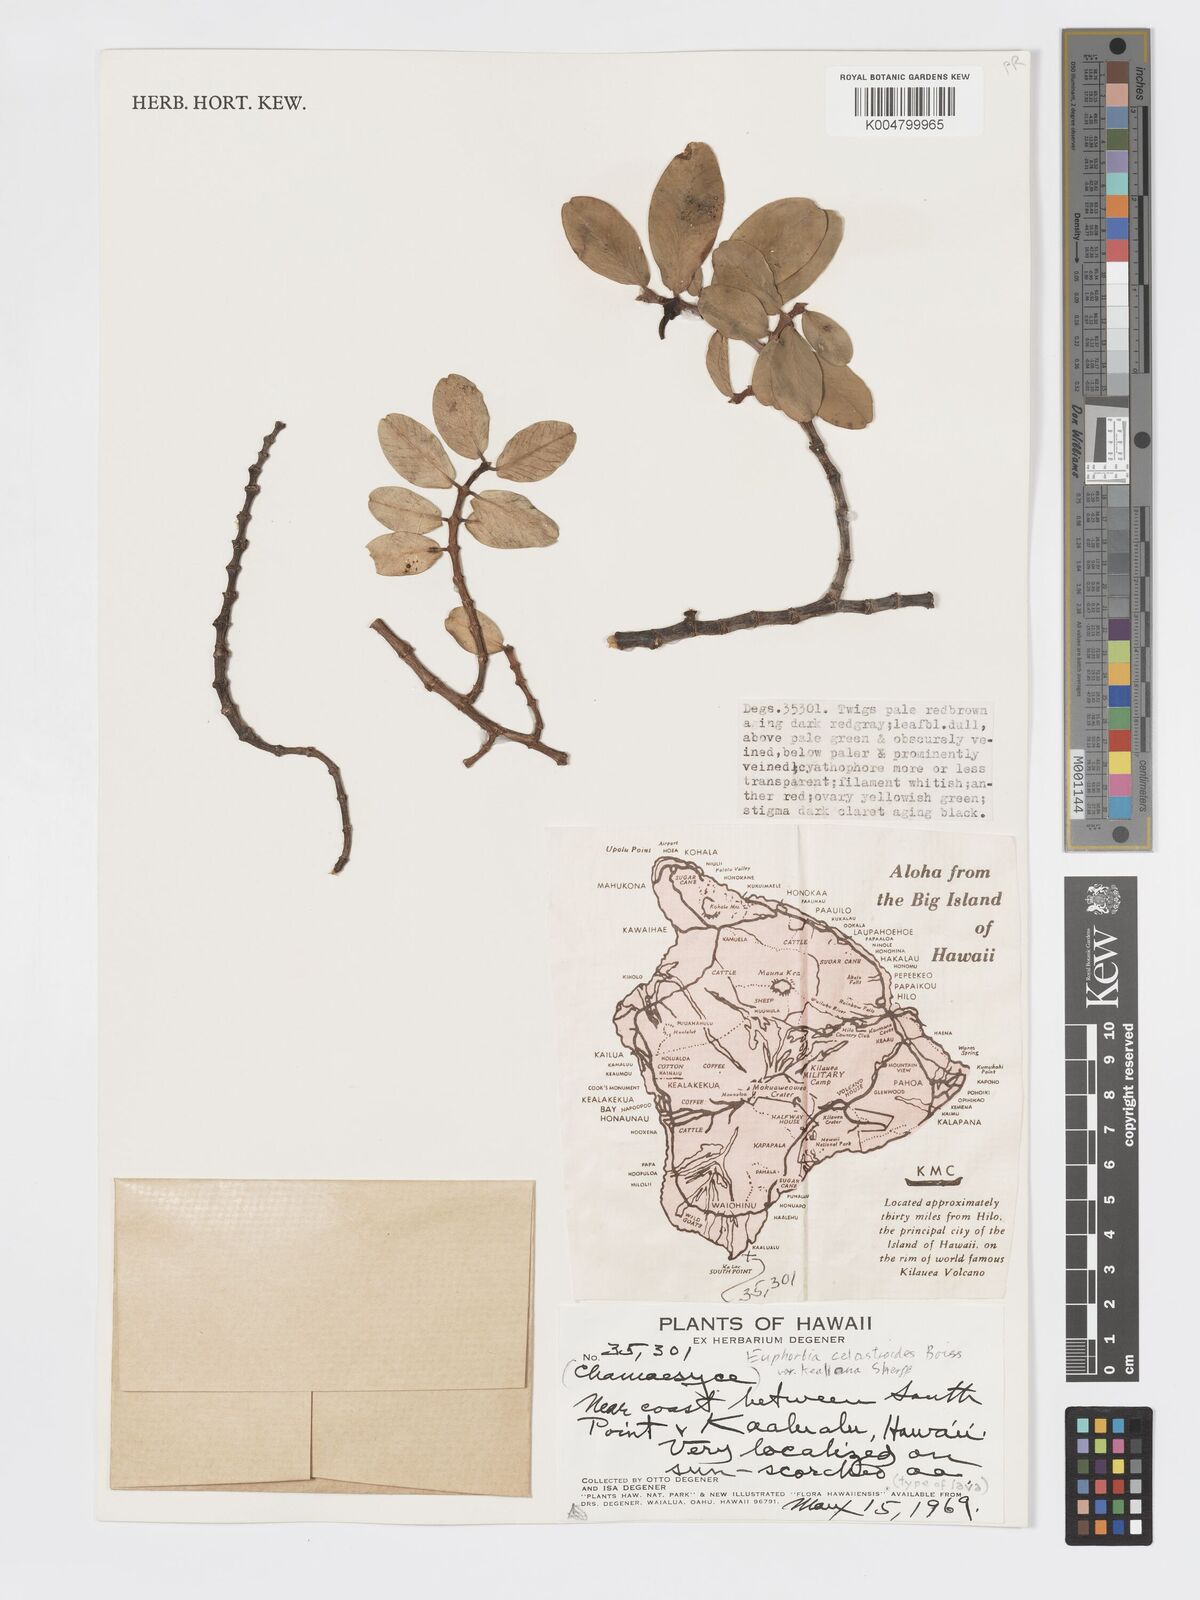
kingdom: Plantae
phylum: Tracheophyta
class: Magnoliopsida
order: Malpighiales
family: Euphorbiaceae
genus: Euphorbia
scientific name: Euphorbia celastroides
